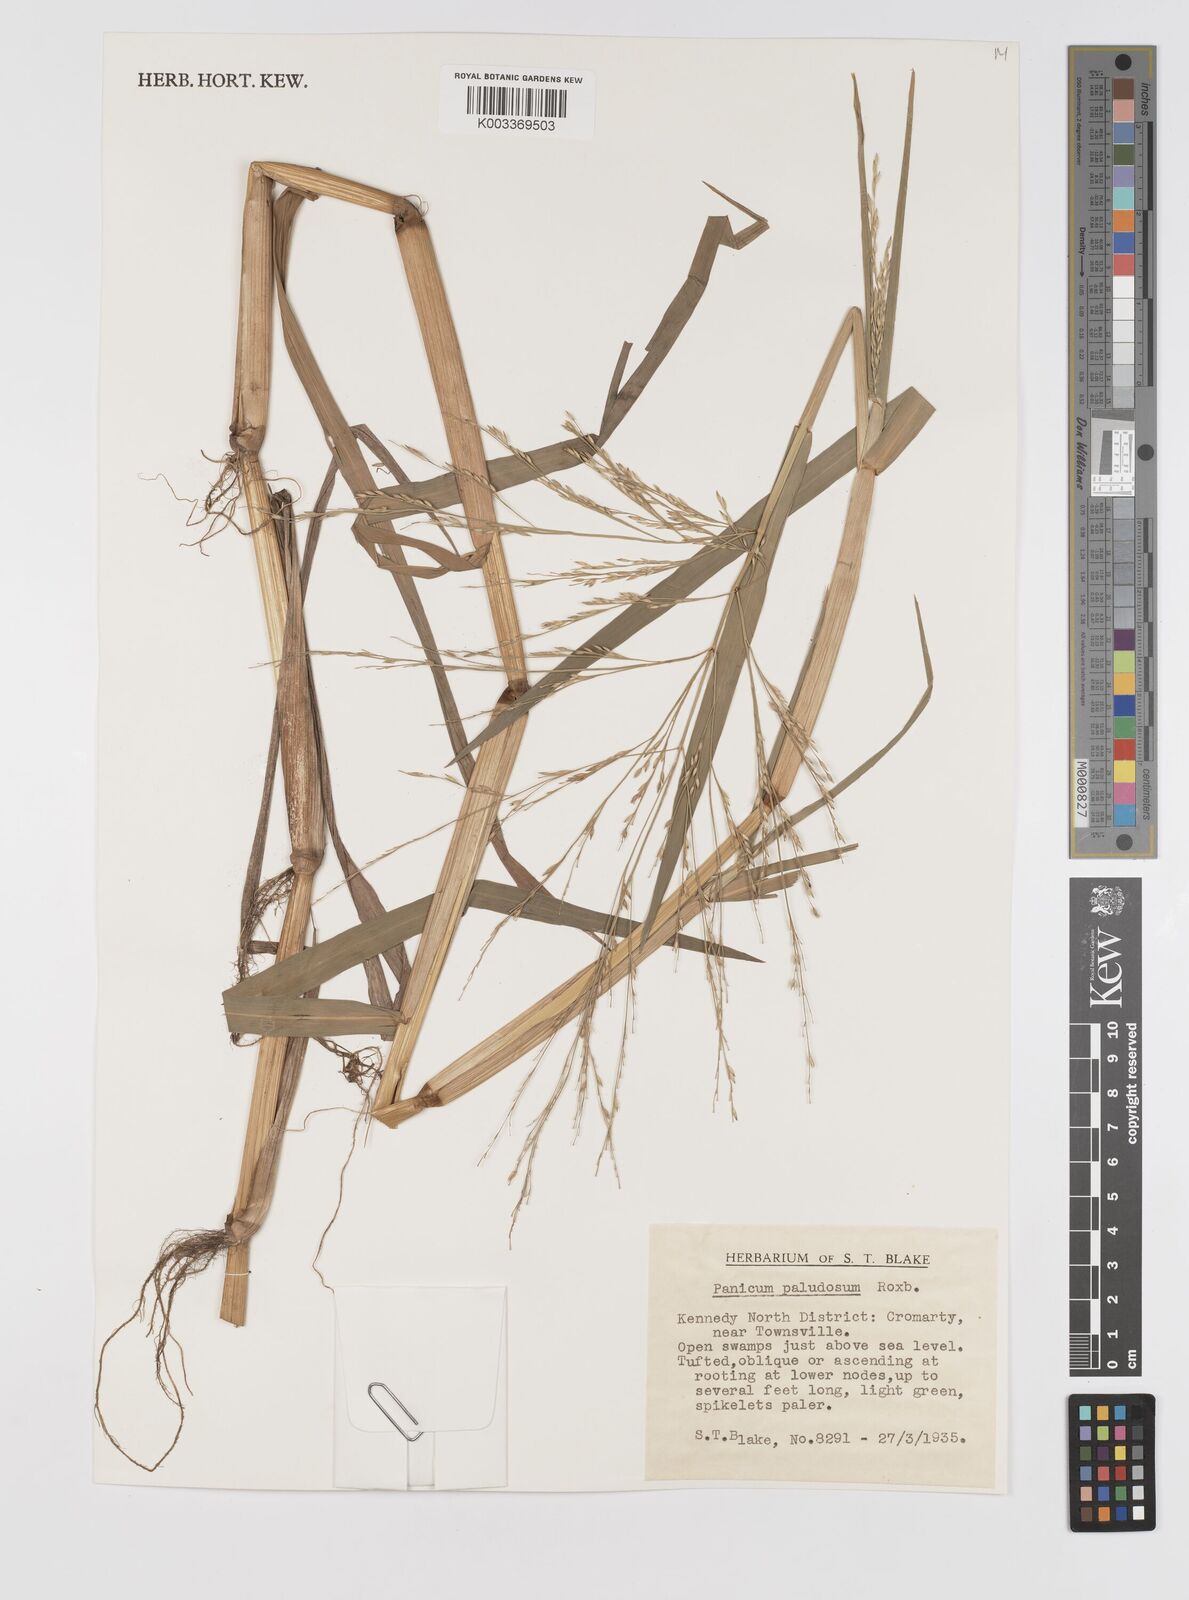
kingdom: Plantae
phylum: Tracheophyta
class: Liliopsida
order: Poales
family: Poaceae
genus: Louisiella
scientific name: Louisiella paludosa
